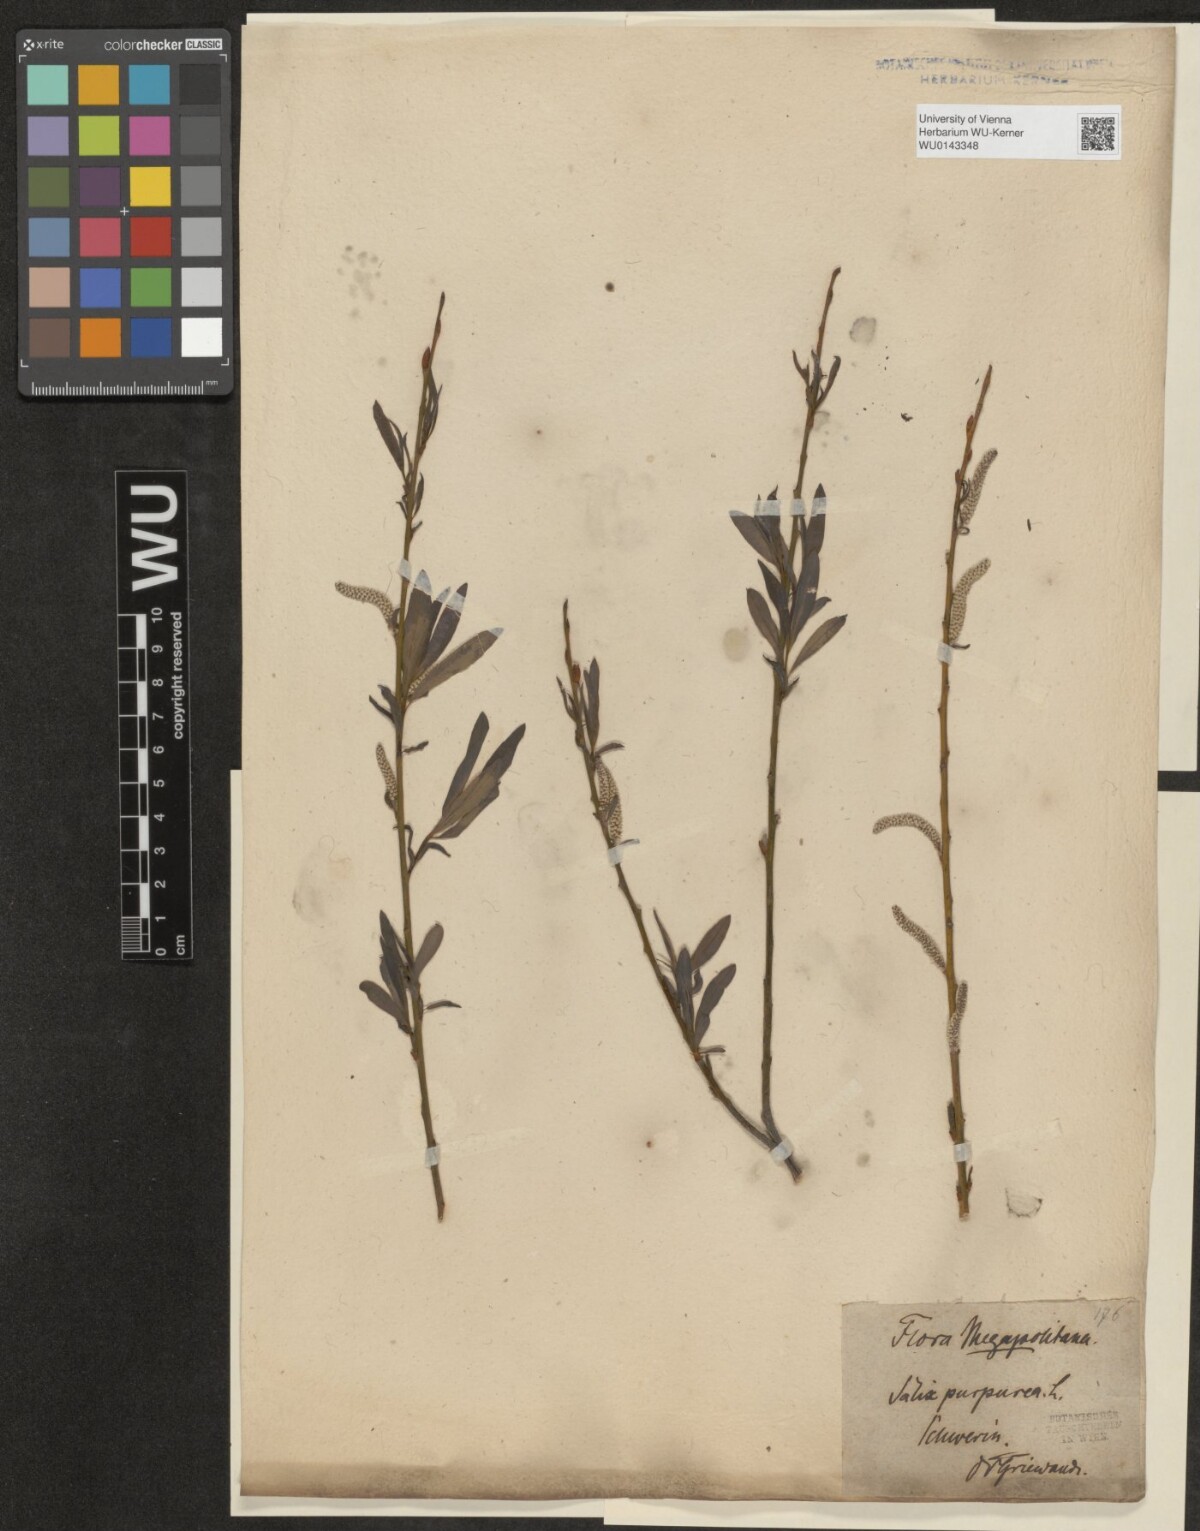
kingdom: Plantae
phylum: Tracheophyta
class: Magnoliopsida
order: Malpighiales
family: Salicaceae
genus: Salix
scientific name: Salix purpurea
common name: Purple willow
